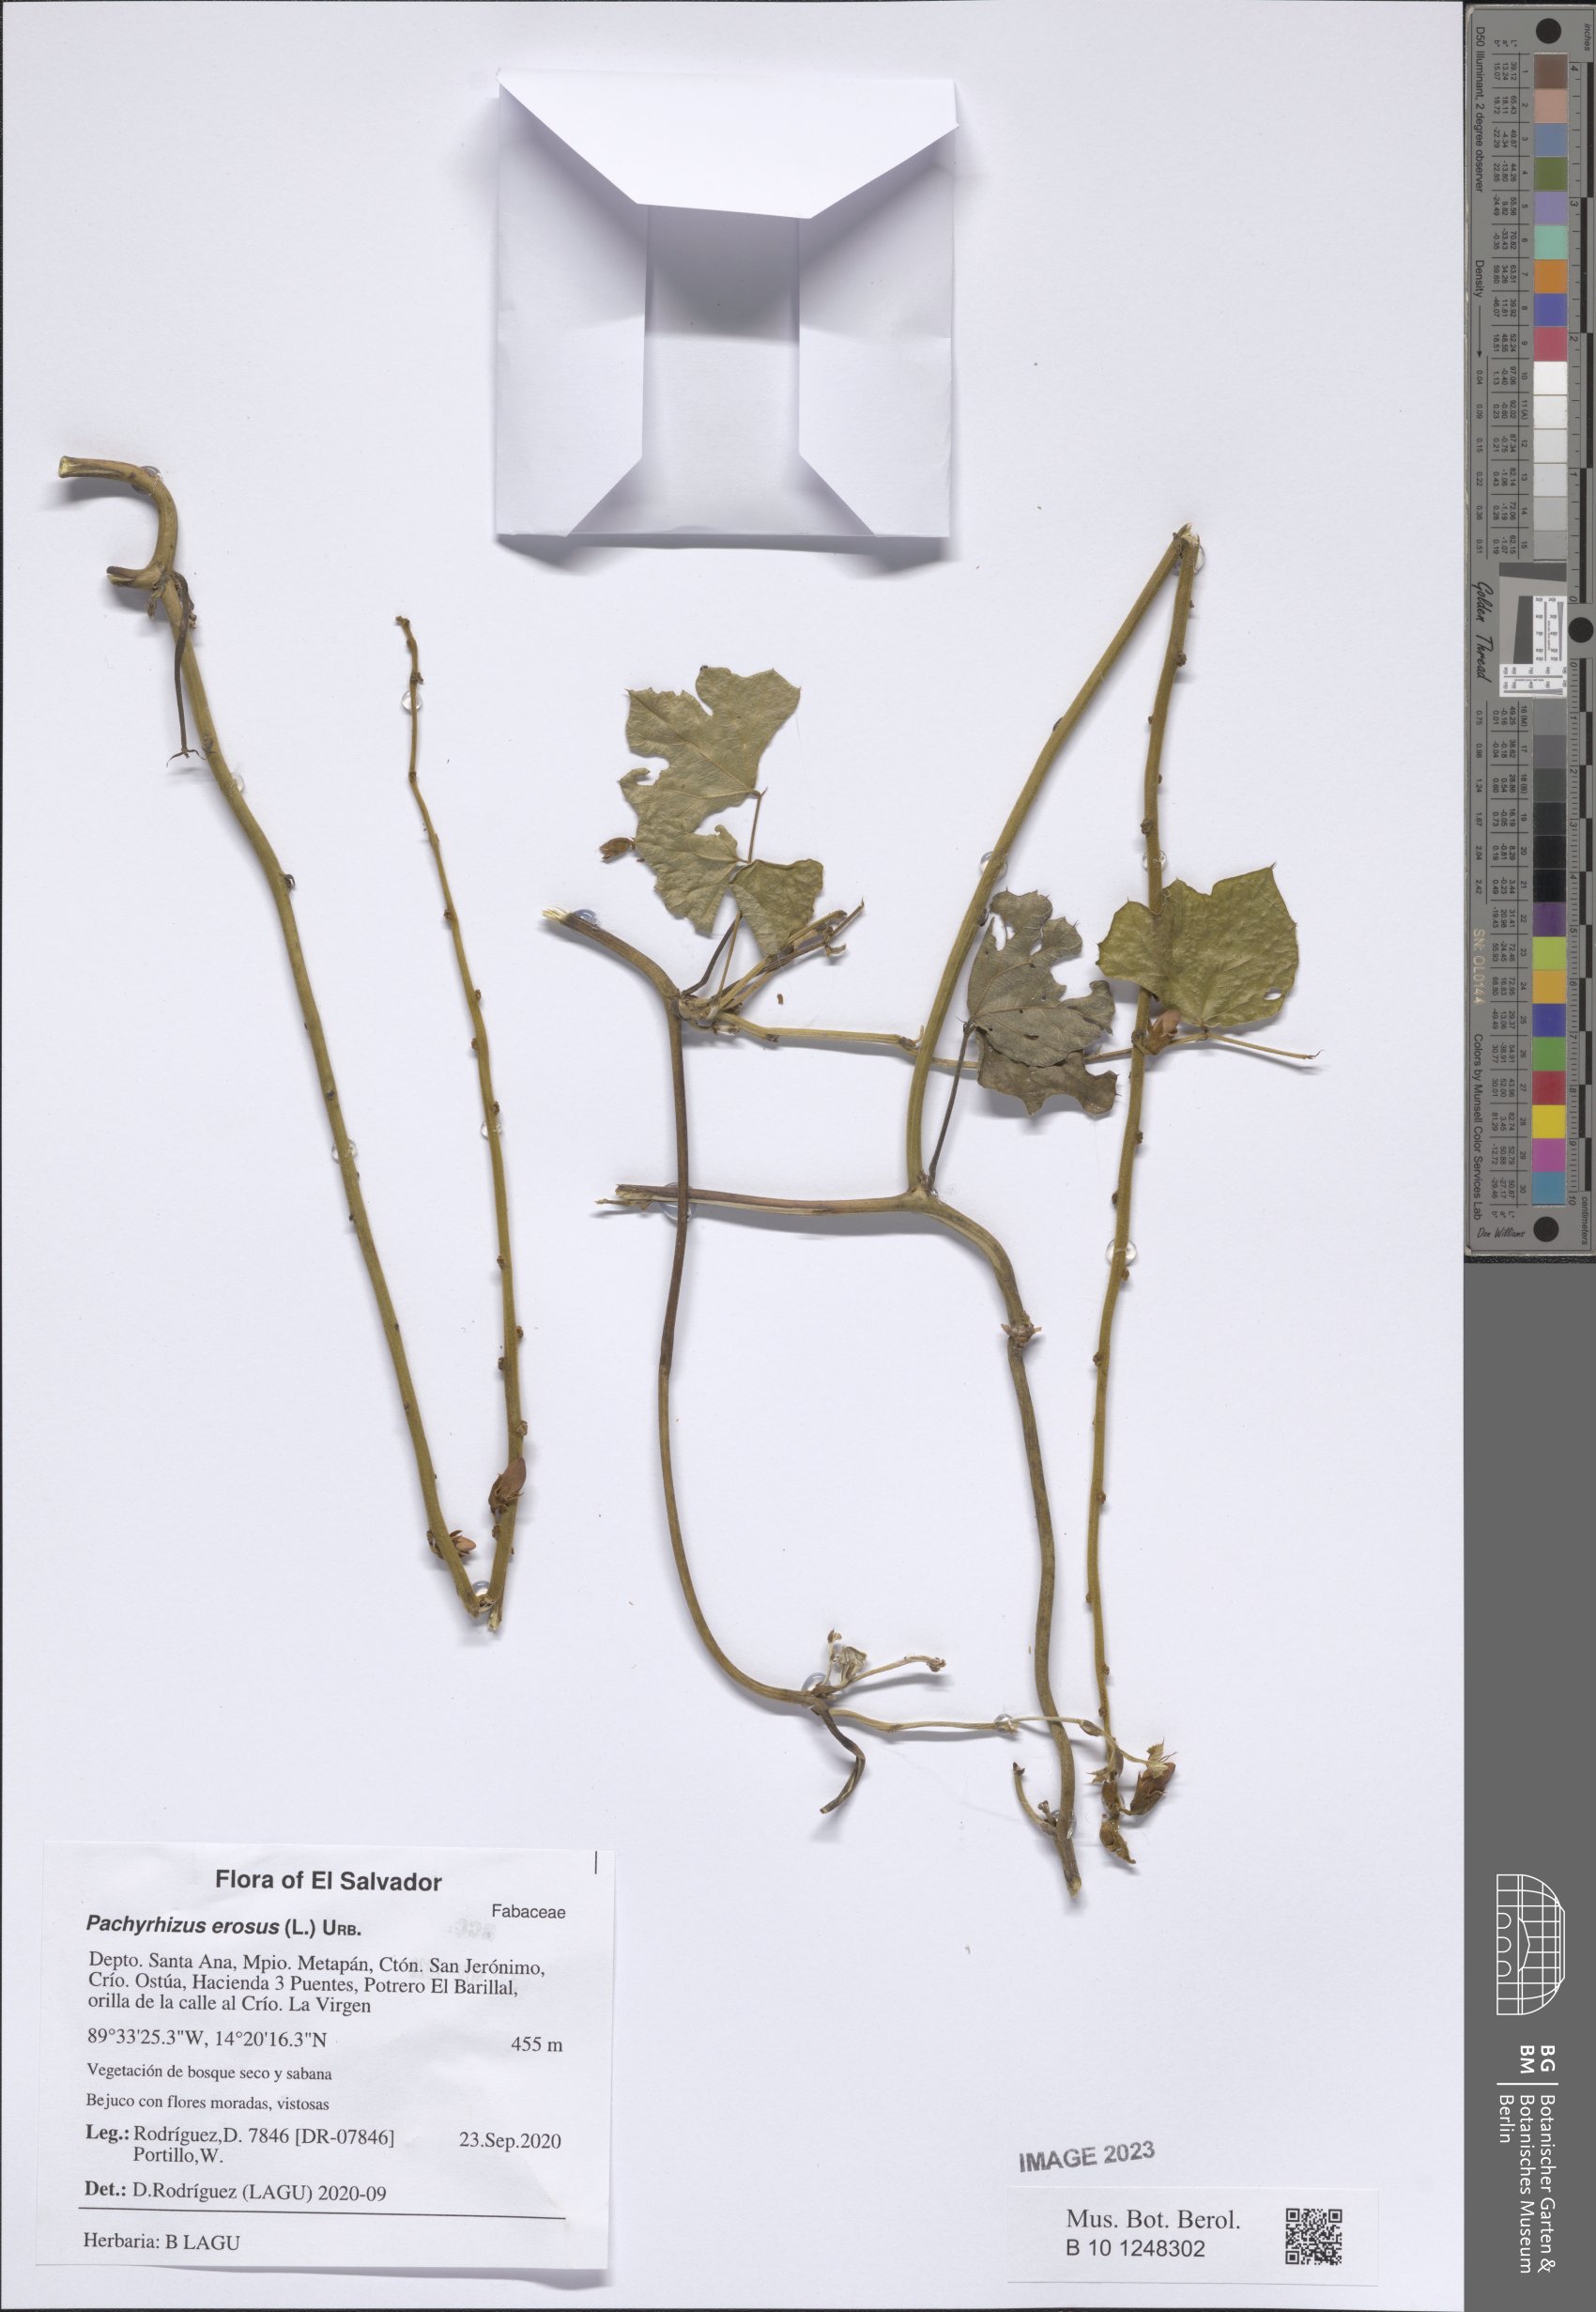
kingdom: Plantae
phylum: Tracheophyta
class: Magnoliopsida
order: Fabales
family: Fabaceae
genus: Pachyrhizus
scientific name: Pachyrhizus erosus
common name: Yam bean
